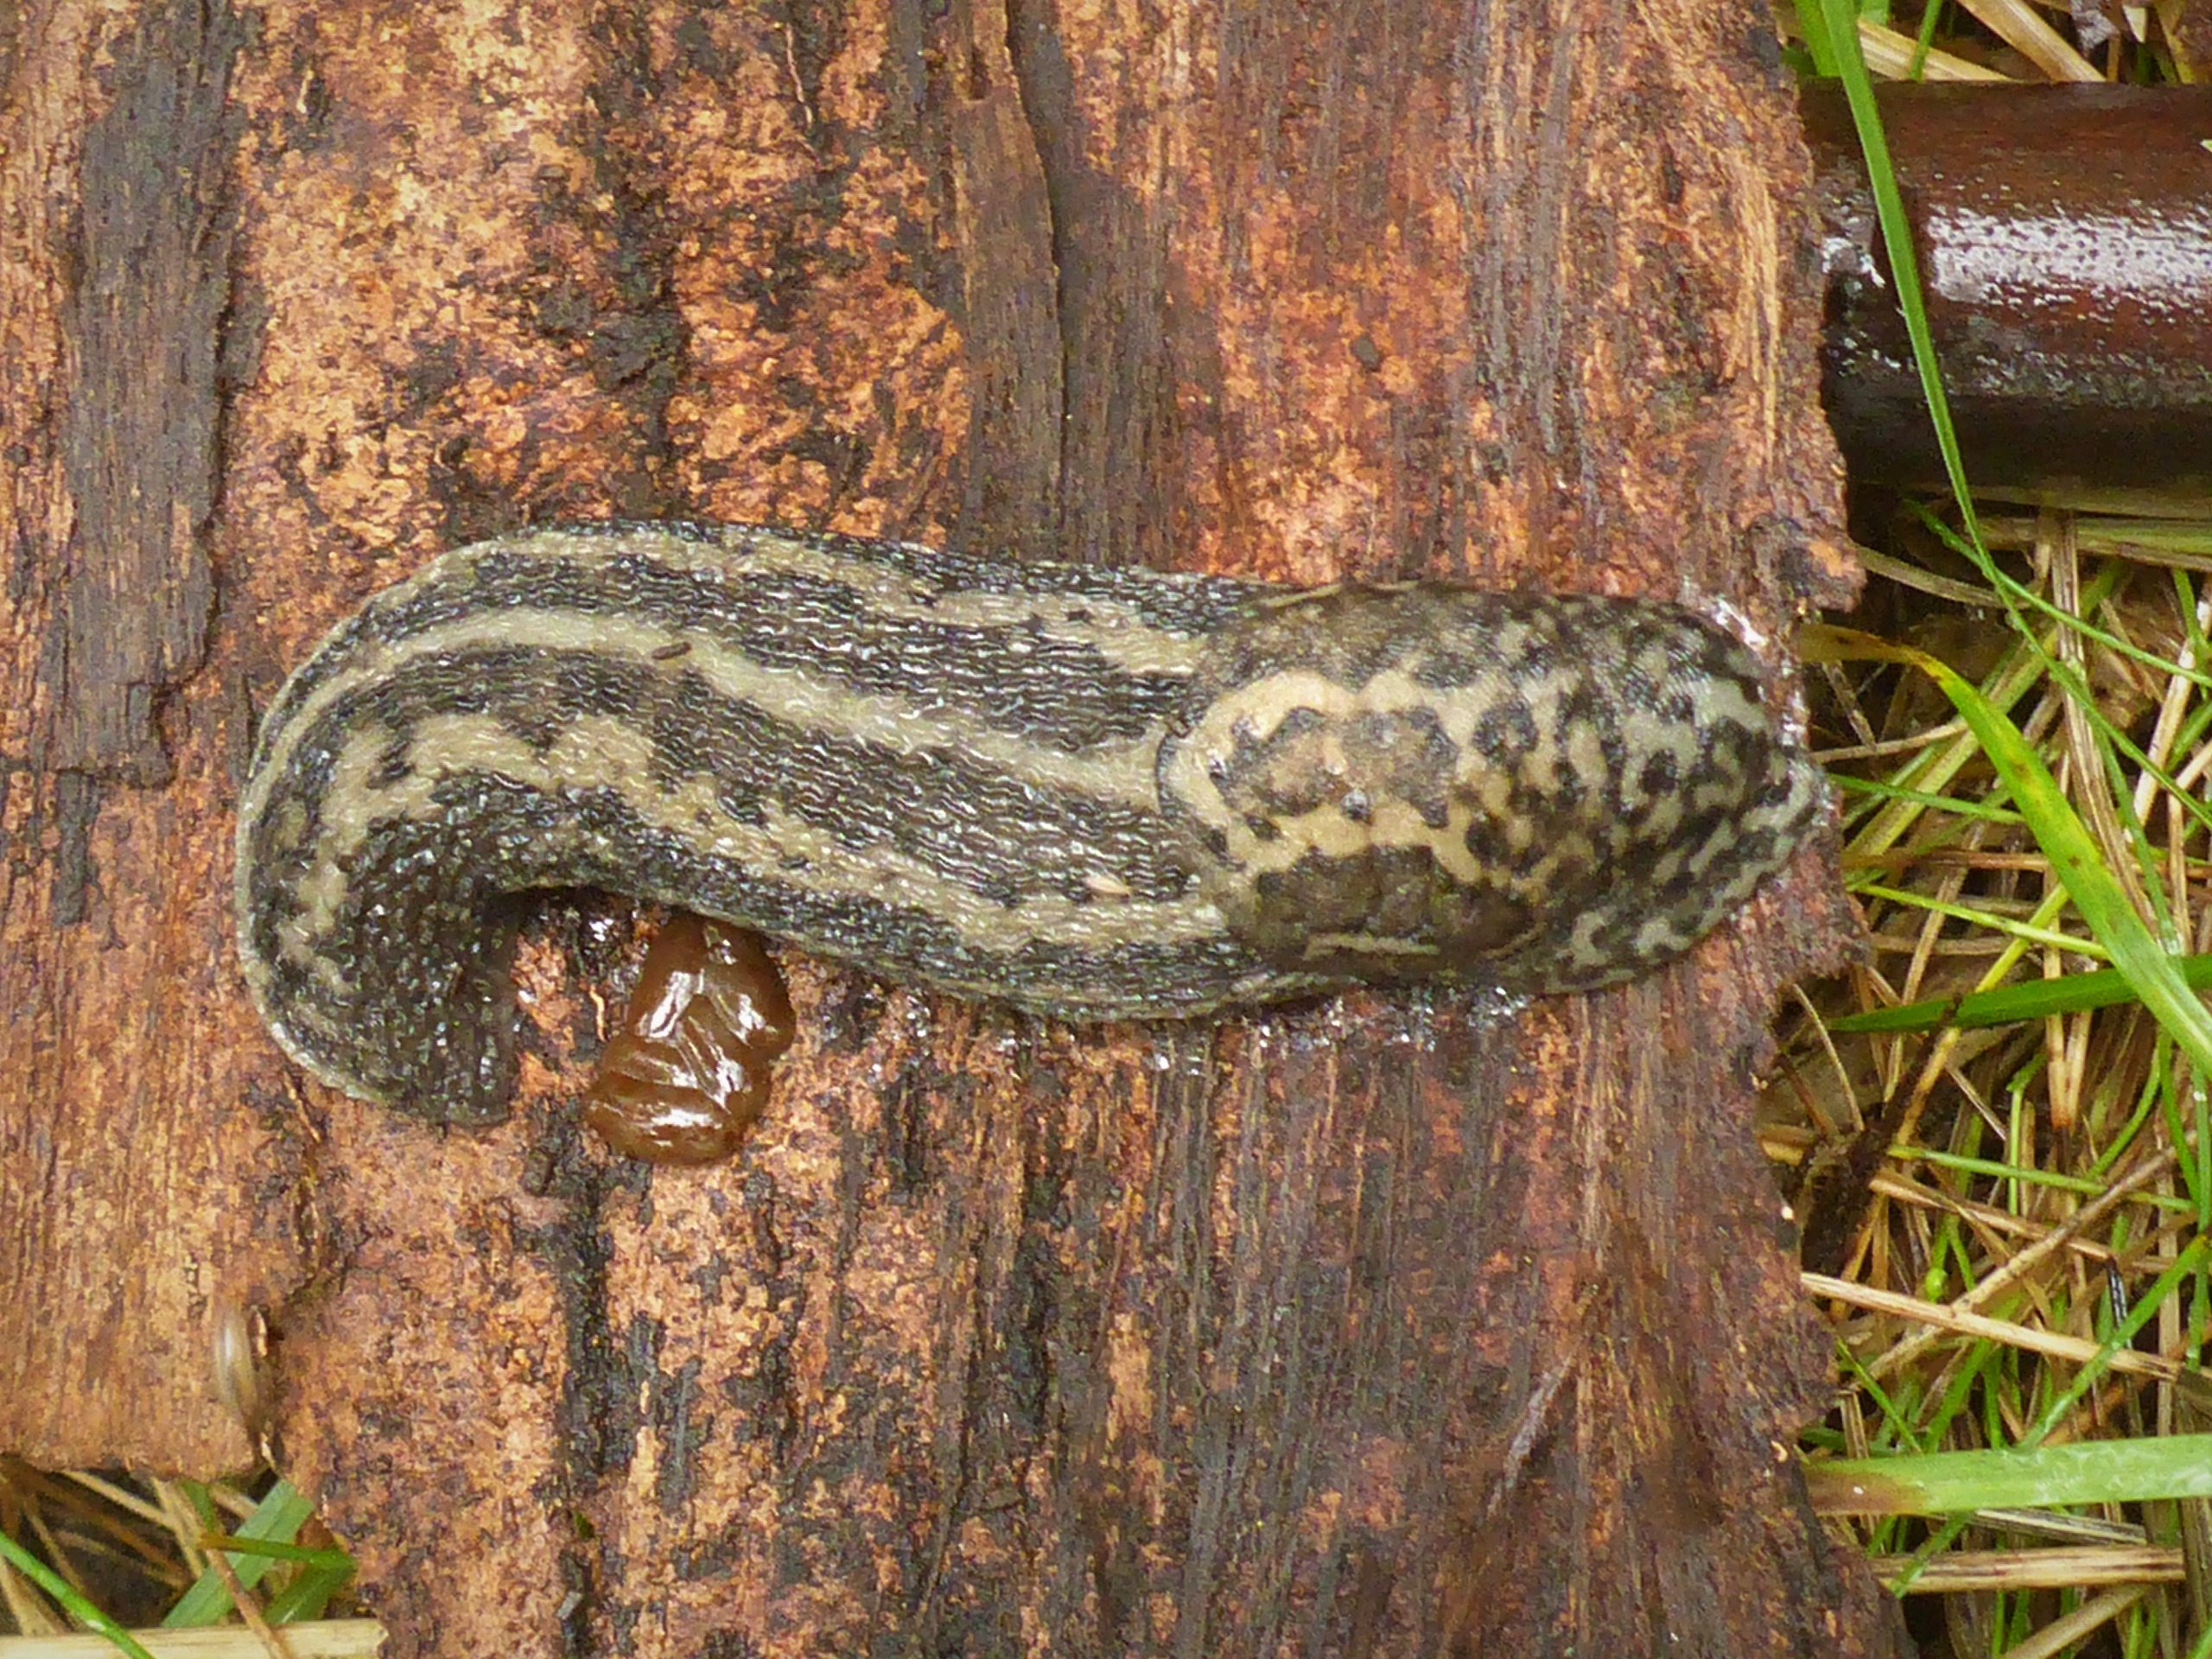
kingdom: Animalia
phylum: Mollusca
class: Gastropoda
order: Stylommatophora
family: Limacidae
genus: Limax
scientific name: Limax maximus
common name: Pantersnegl
